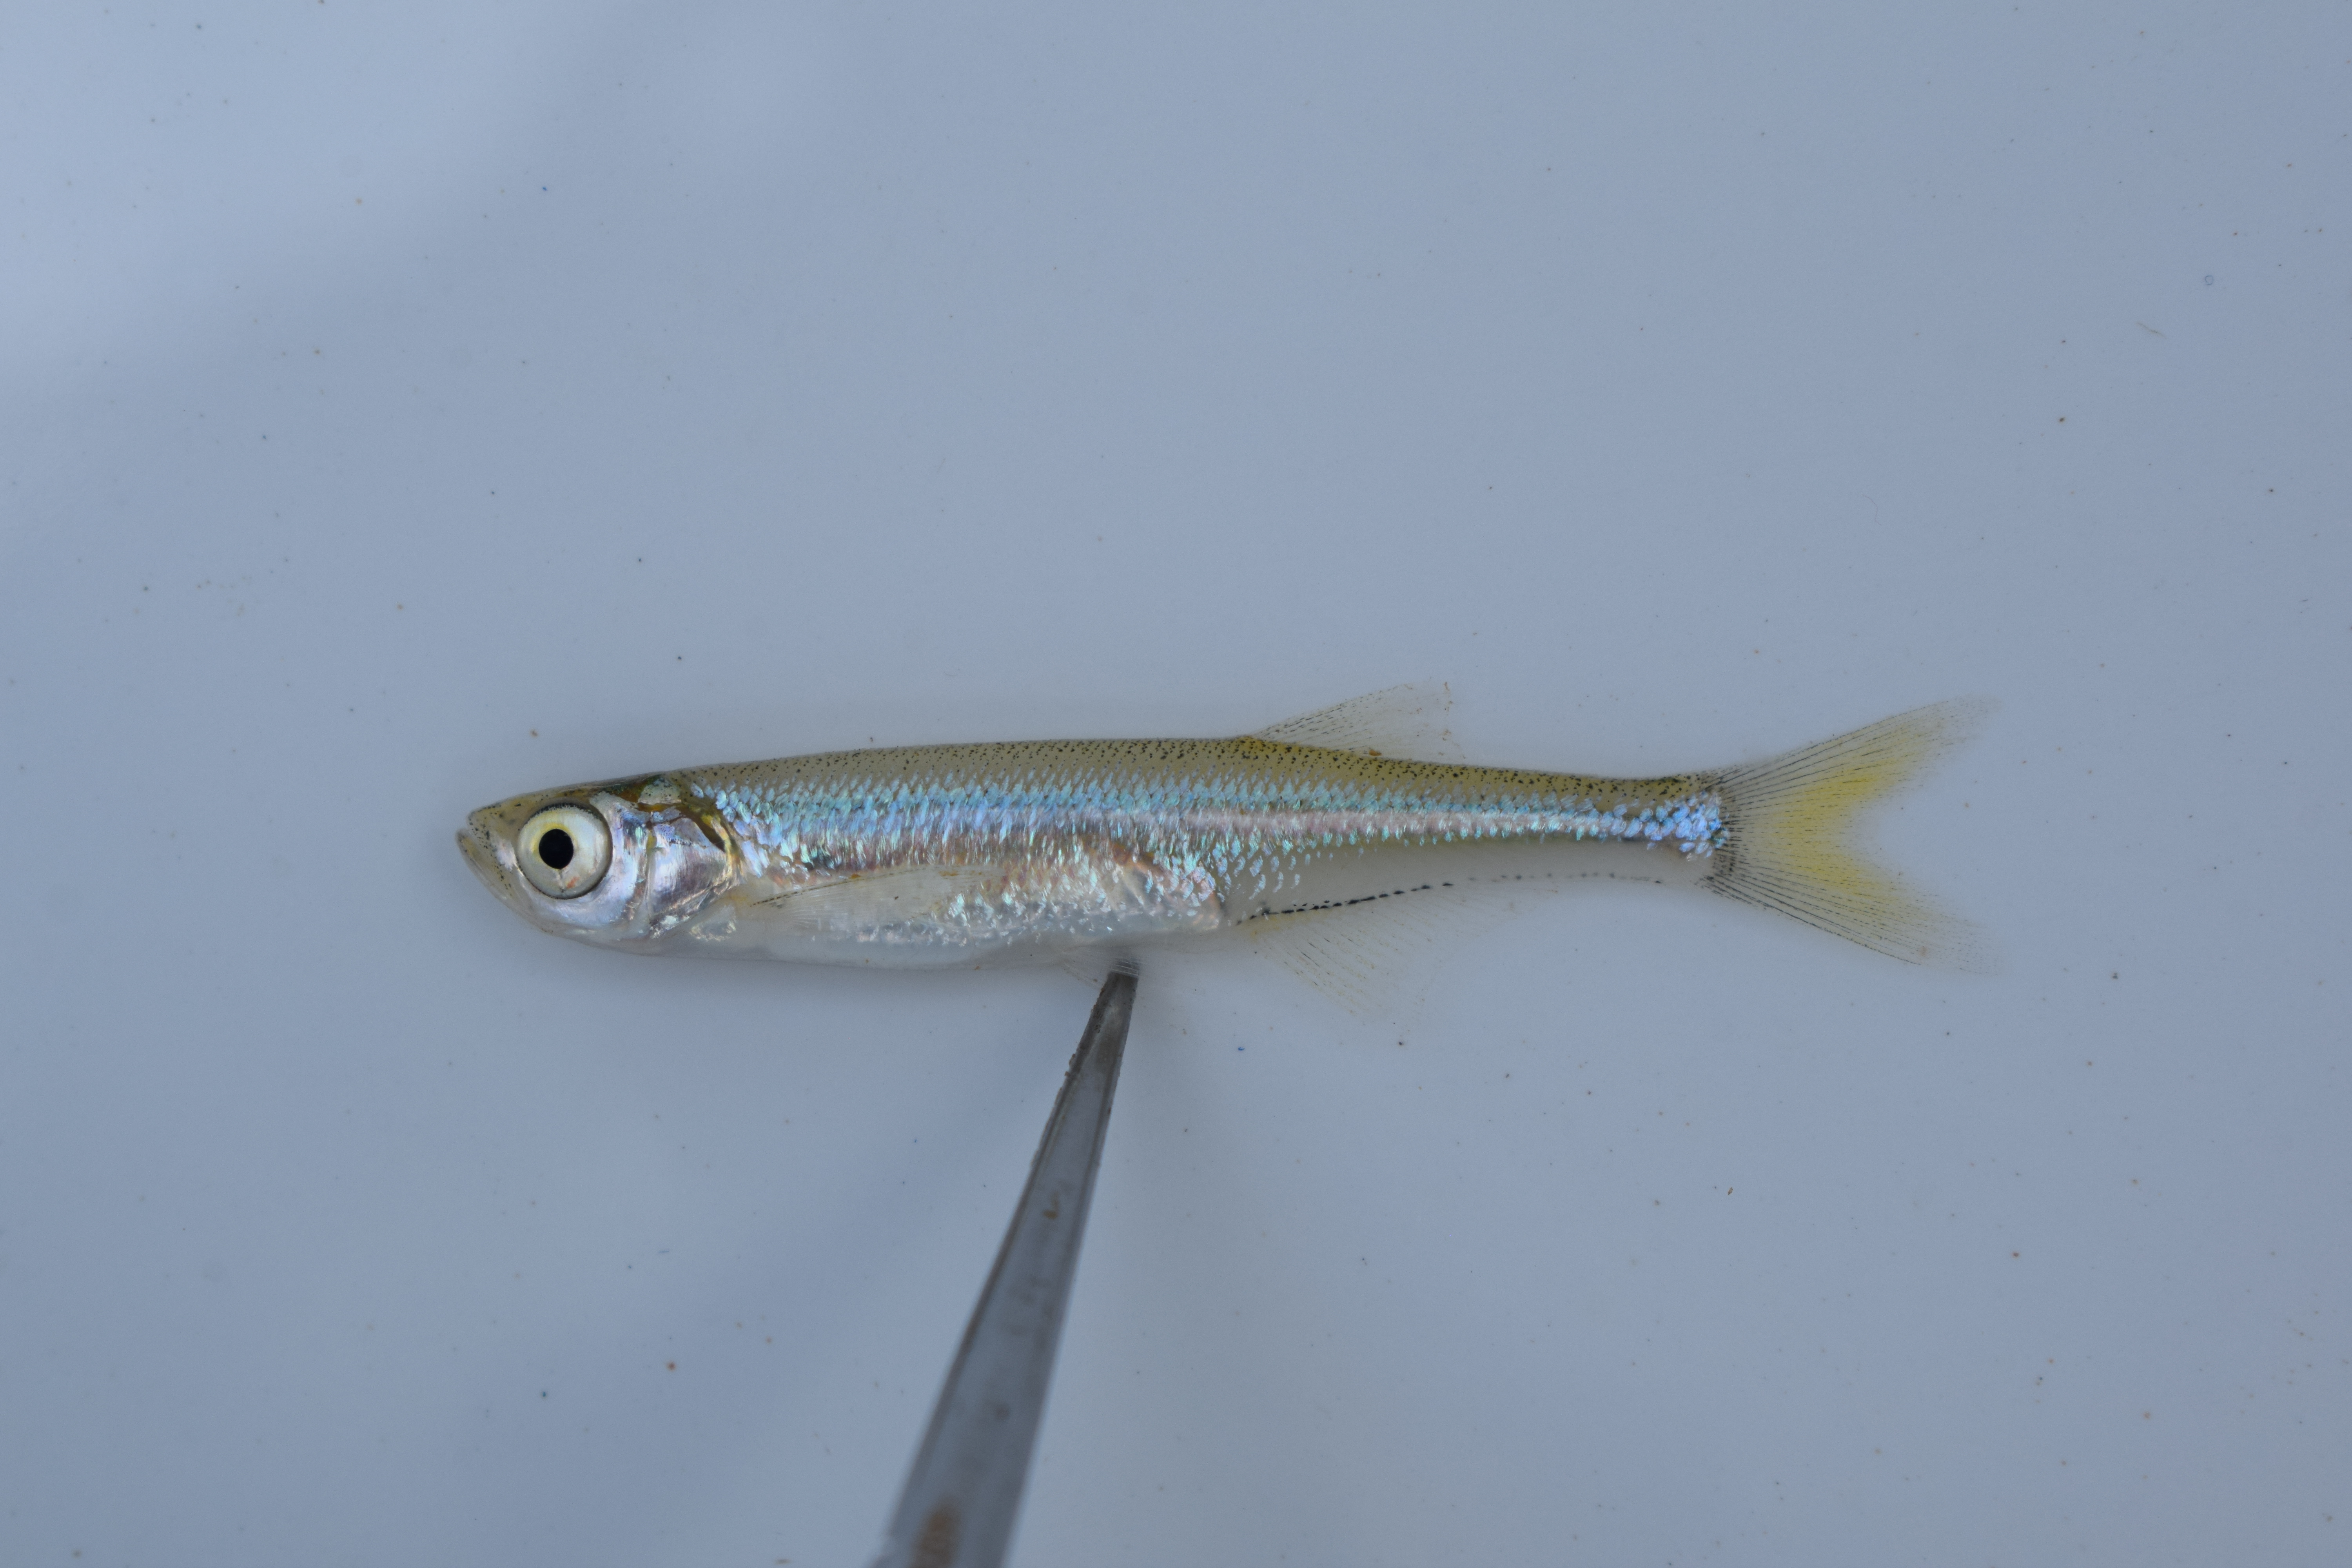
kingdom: Animalia
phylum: Chordata
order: Cypriniformes
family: Cyprinidae
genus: Engraulicypris
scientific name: Engraulicypris brevianalis
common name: River sardine
